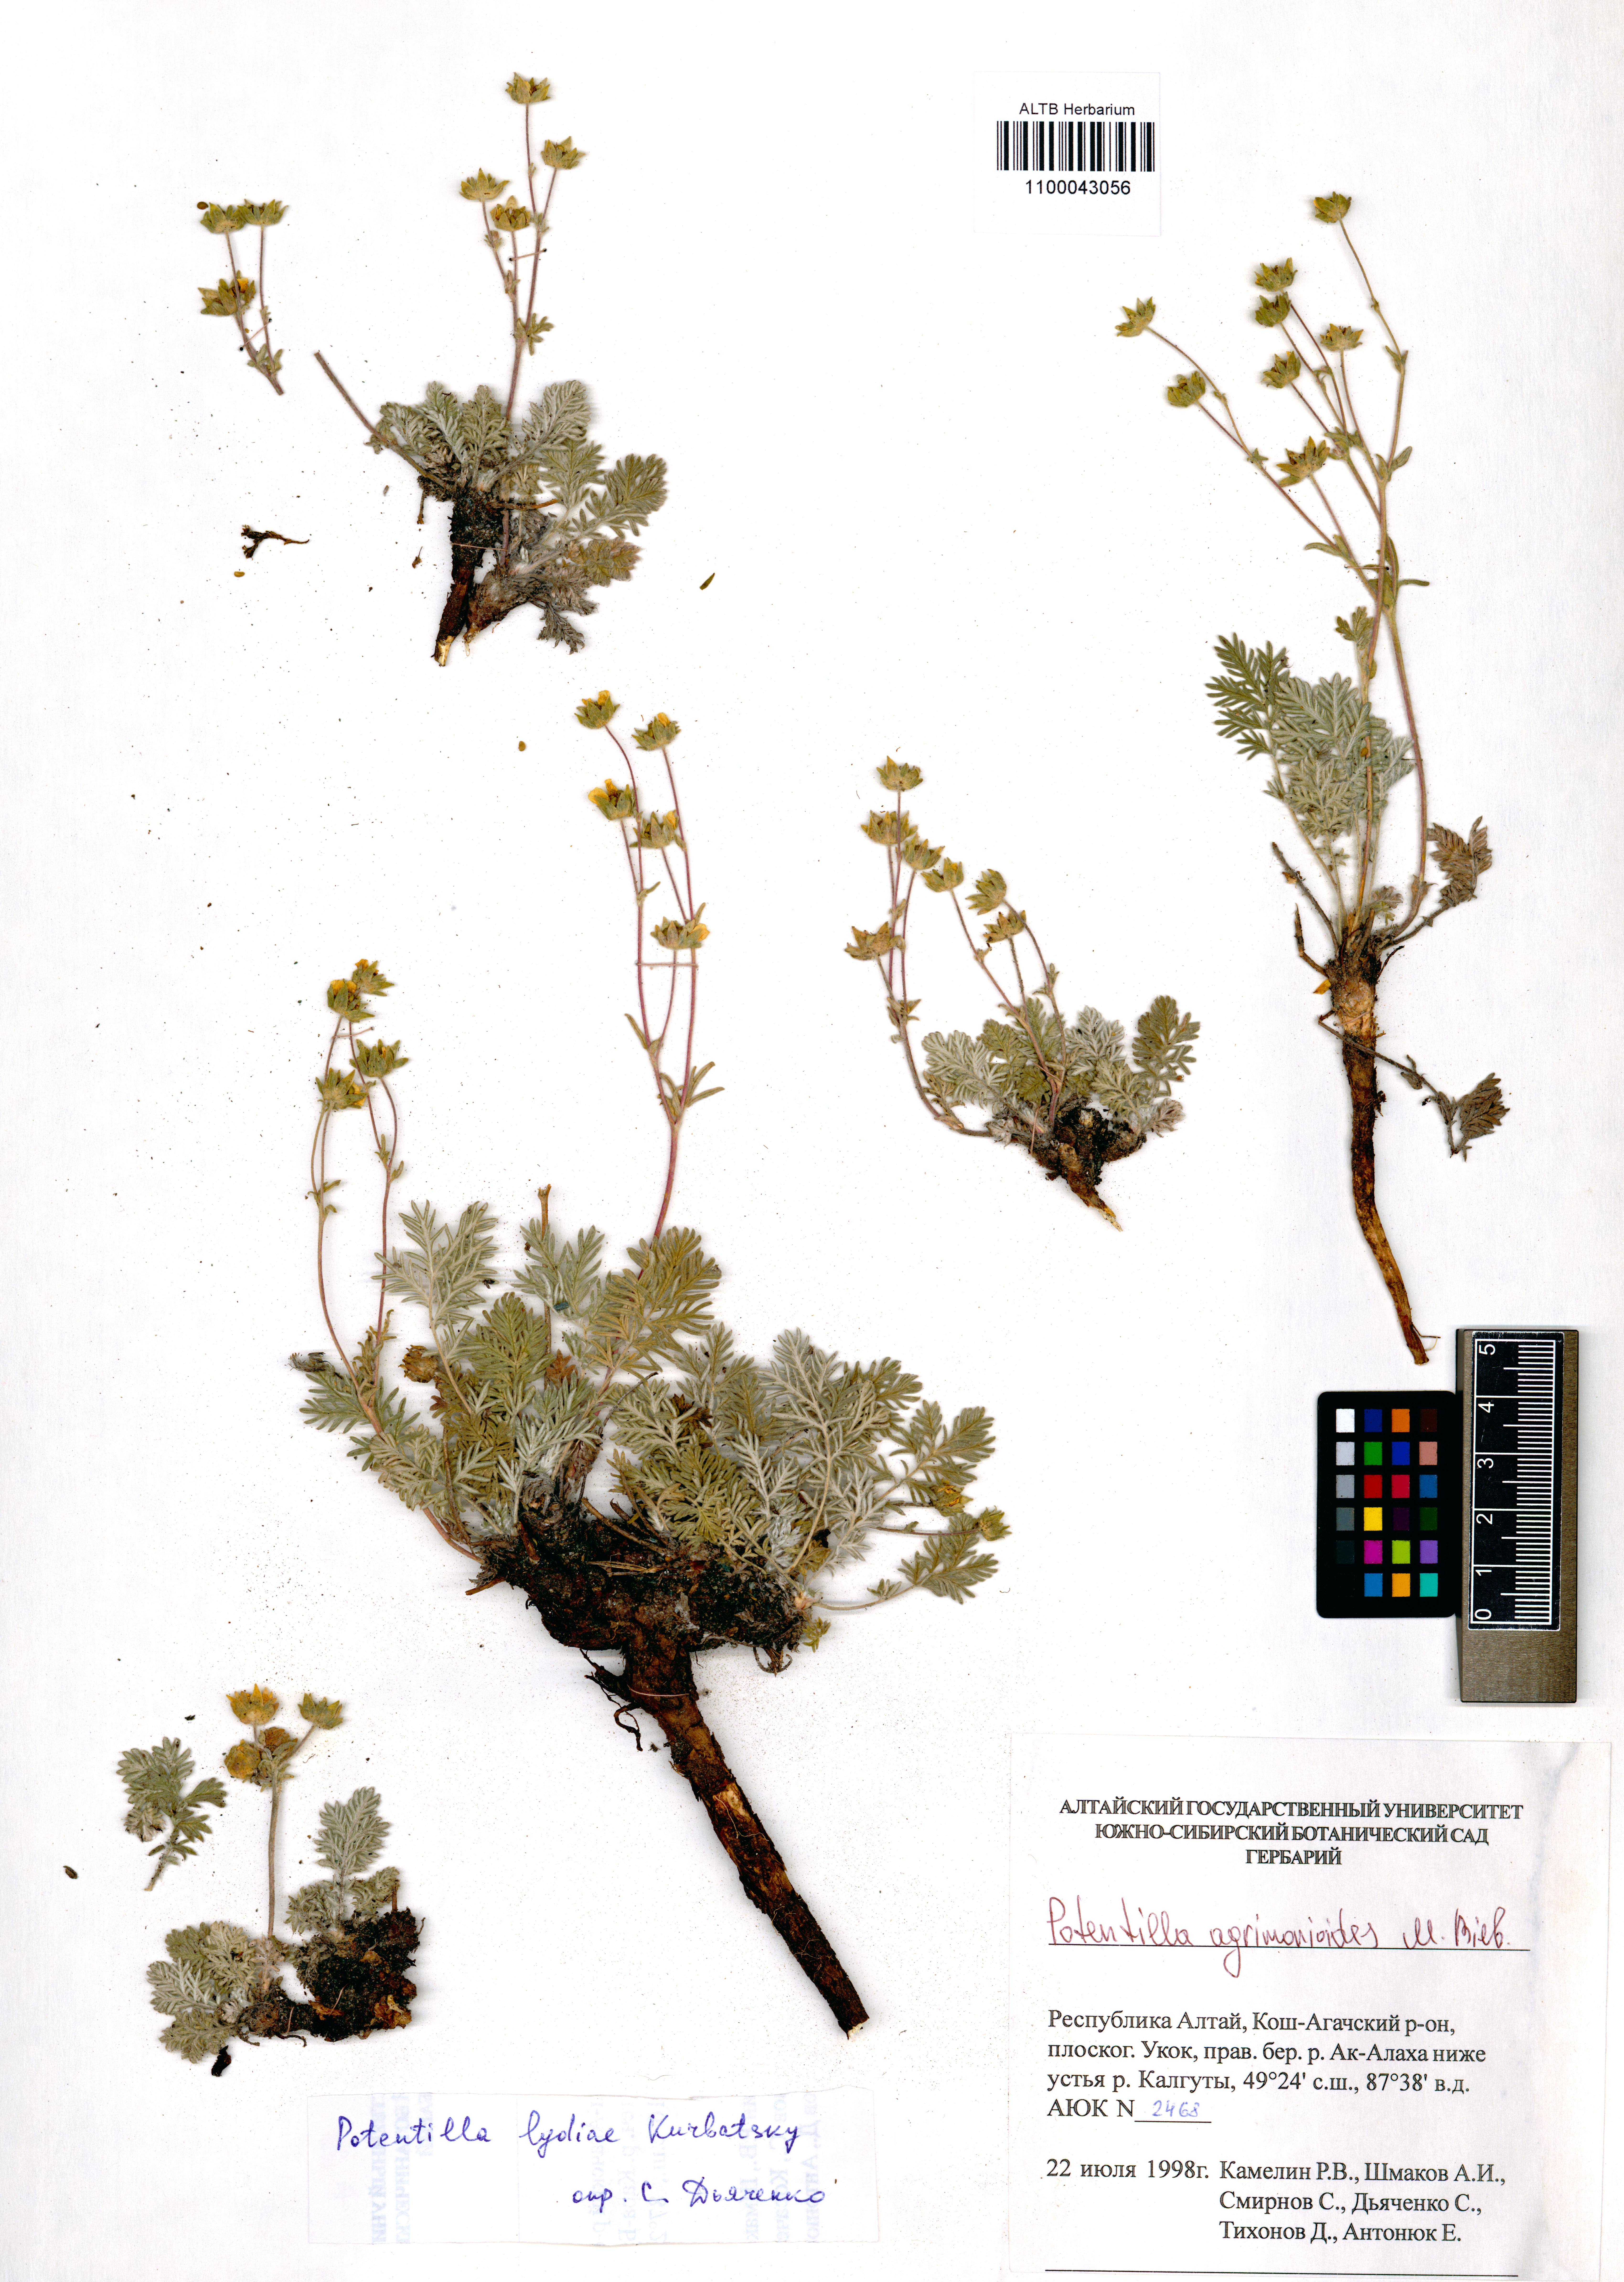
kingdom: Plantae
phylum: Tracheophyta
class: Magnoliopsida
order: Rosales
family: Rosaceae
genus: Potentilla
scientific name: Potentilla agrimonioides
